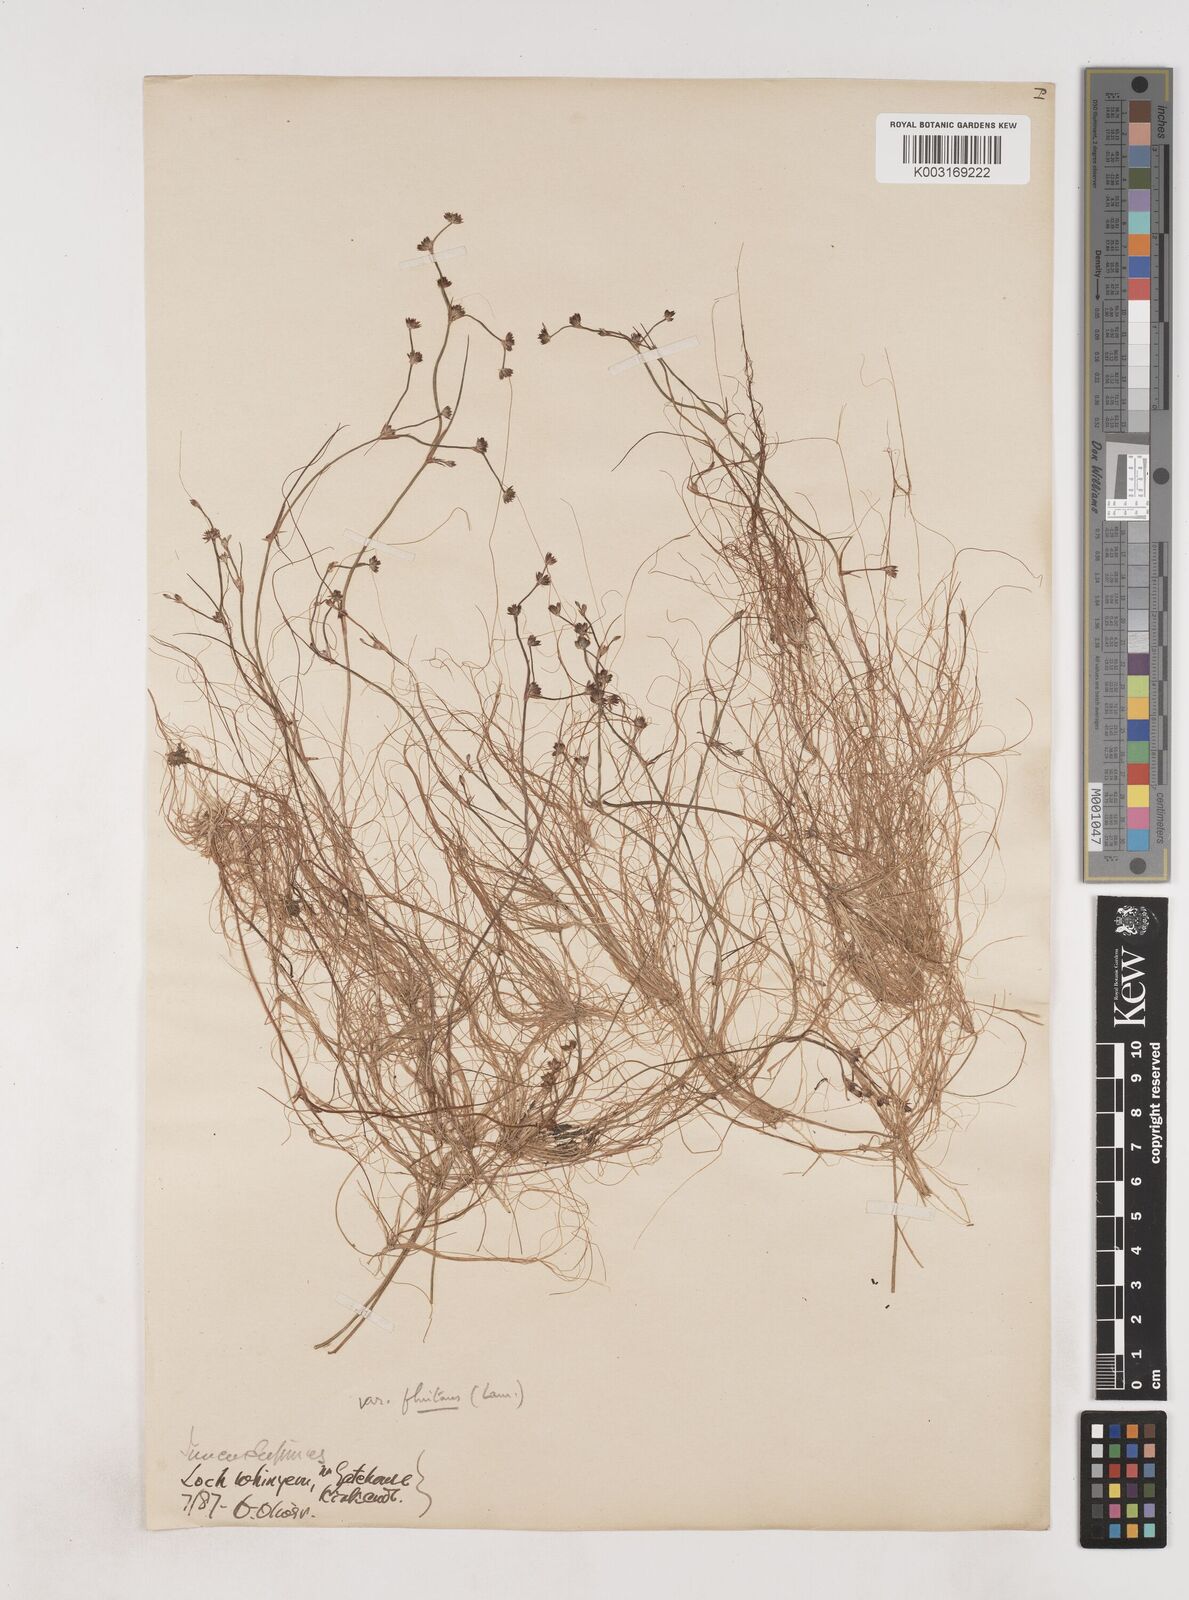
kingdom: Plantae
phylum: Tracheophyta
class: Liliopsida
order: Poales
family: Juncaceae
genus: Juncus
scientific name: Juncus bulbosus
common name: Bulbous rush
